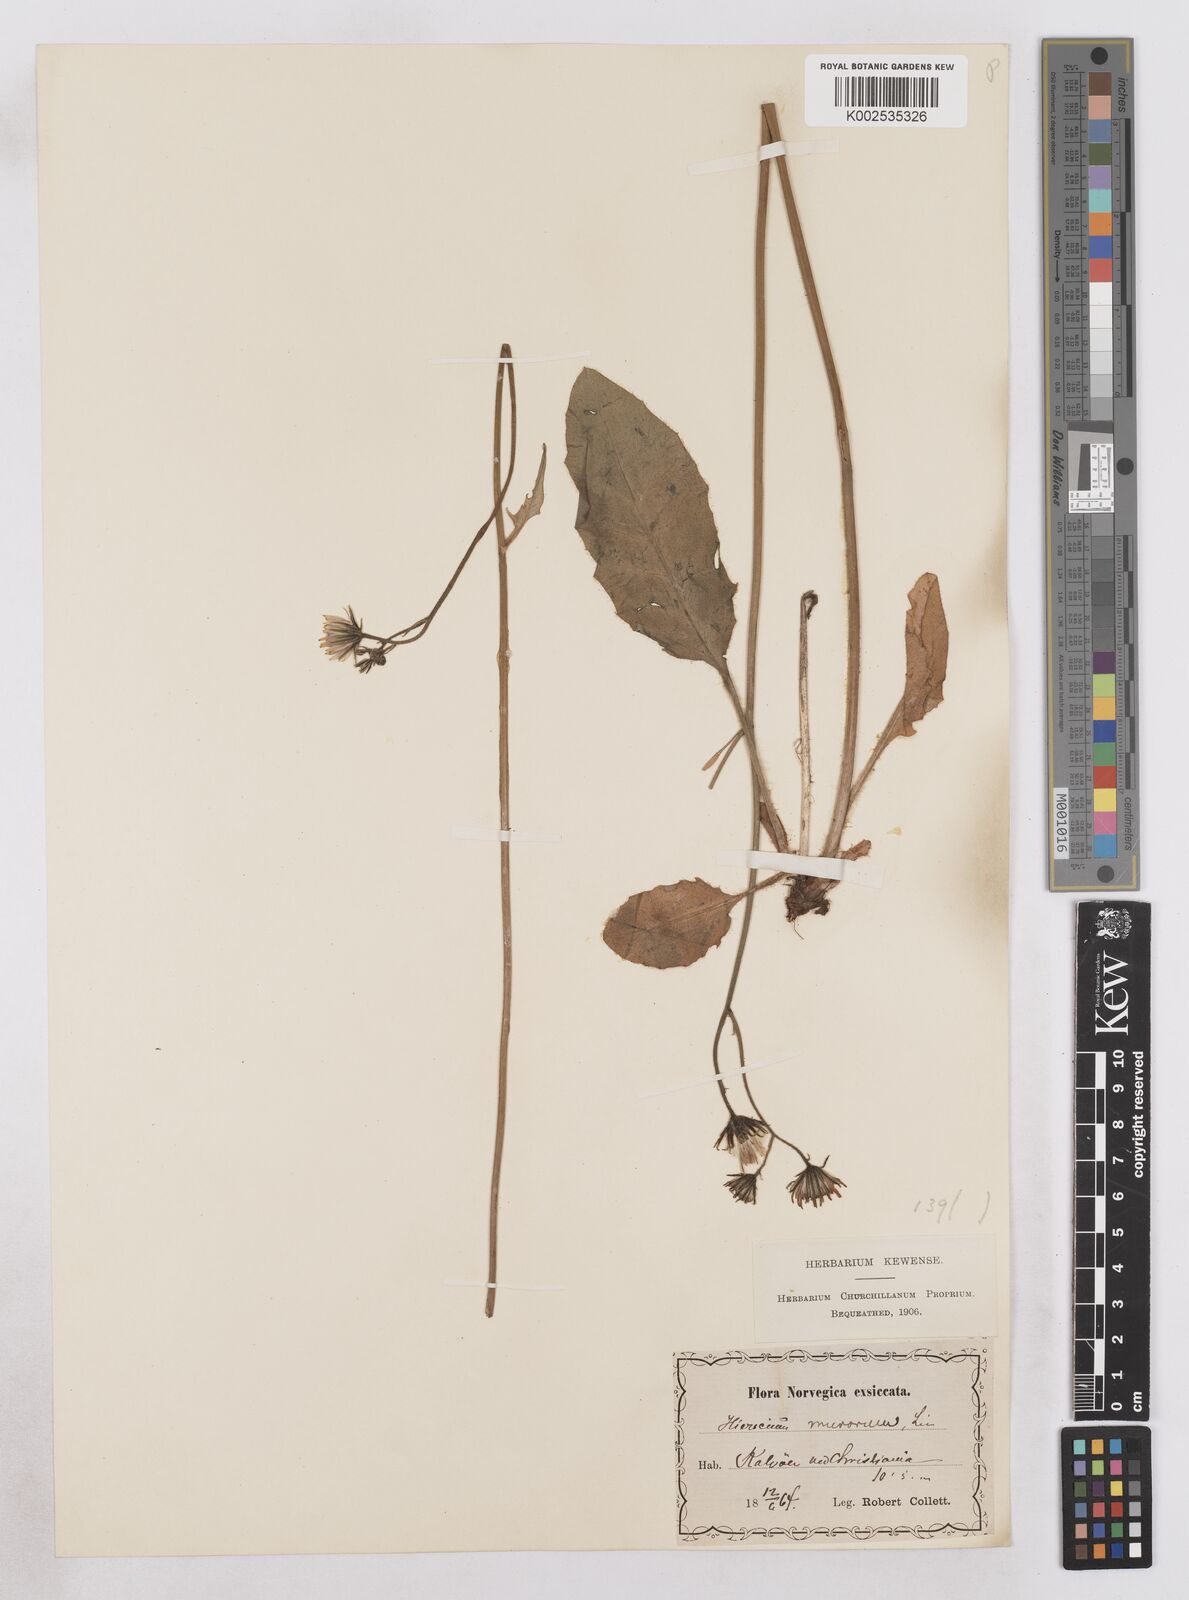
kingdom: Plantae
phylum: Tracheophyta
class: Magnoliopsida
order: Asterales
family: Asteraceae
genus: Hieracium
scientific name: Hieracium conspurcans
